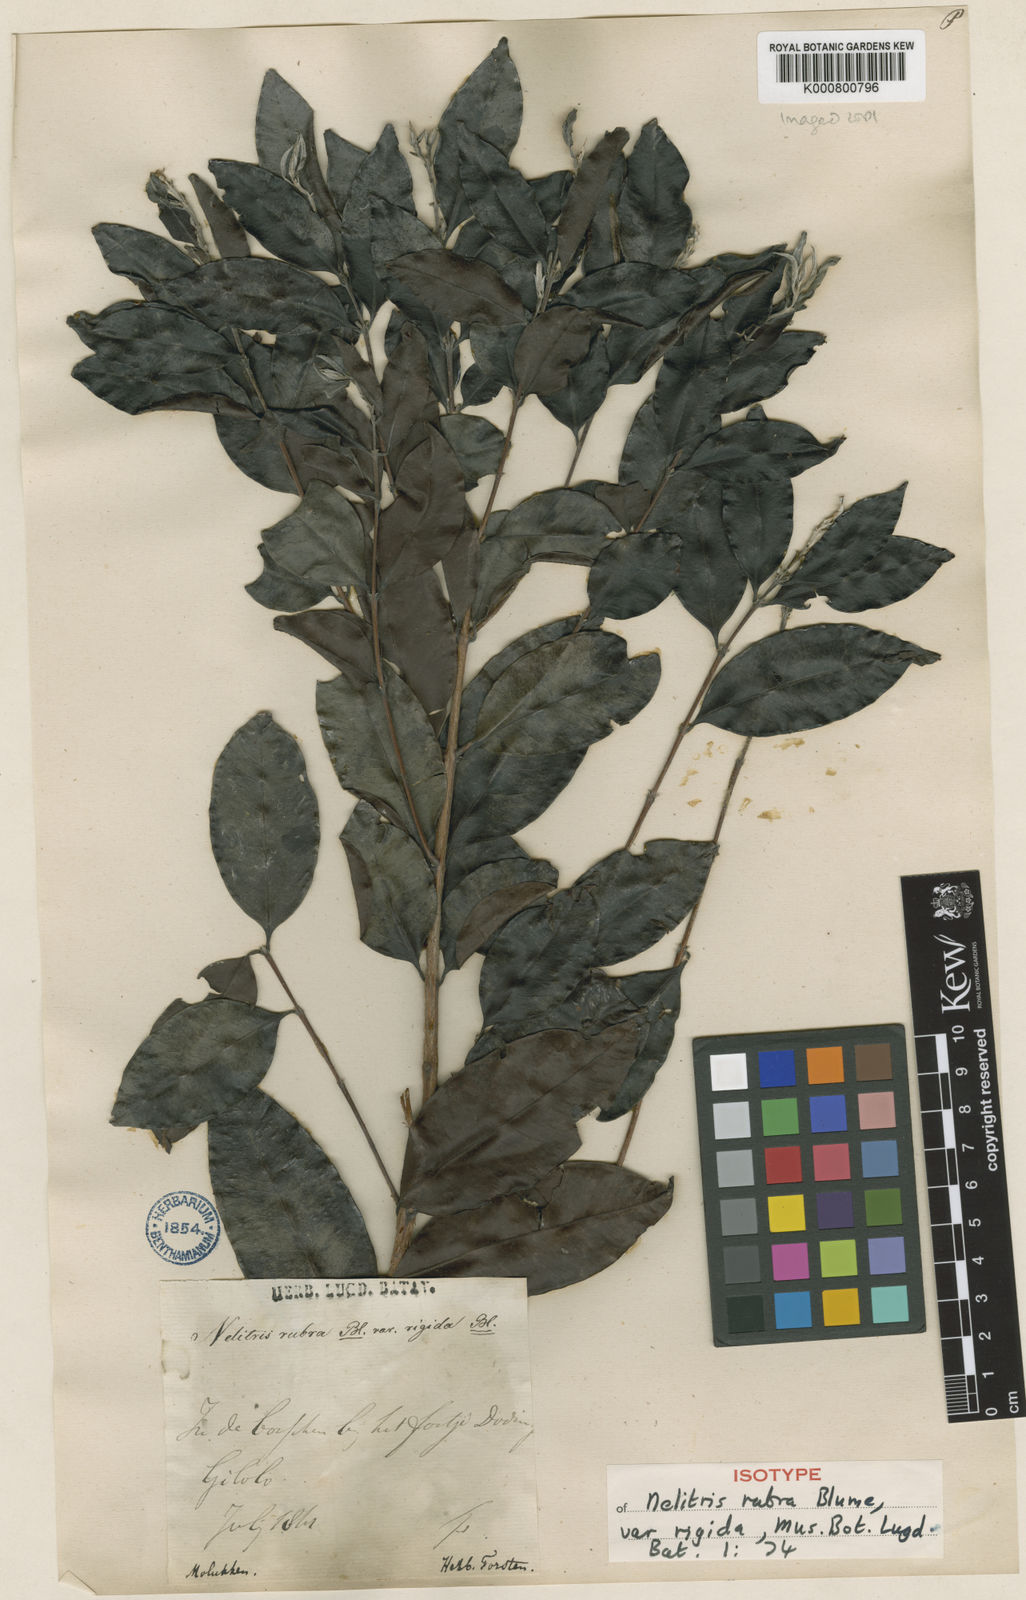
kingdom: Plantae
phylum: Tracheophyta
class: Magnoliopsida
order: Myrtales
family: Myrtaceae
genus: Decaspermum
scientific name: Decaspermum parviflorum
